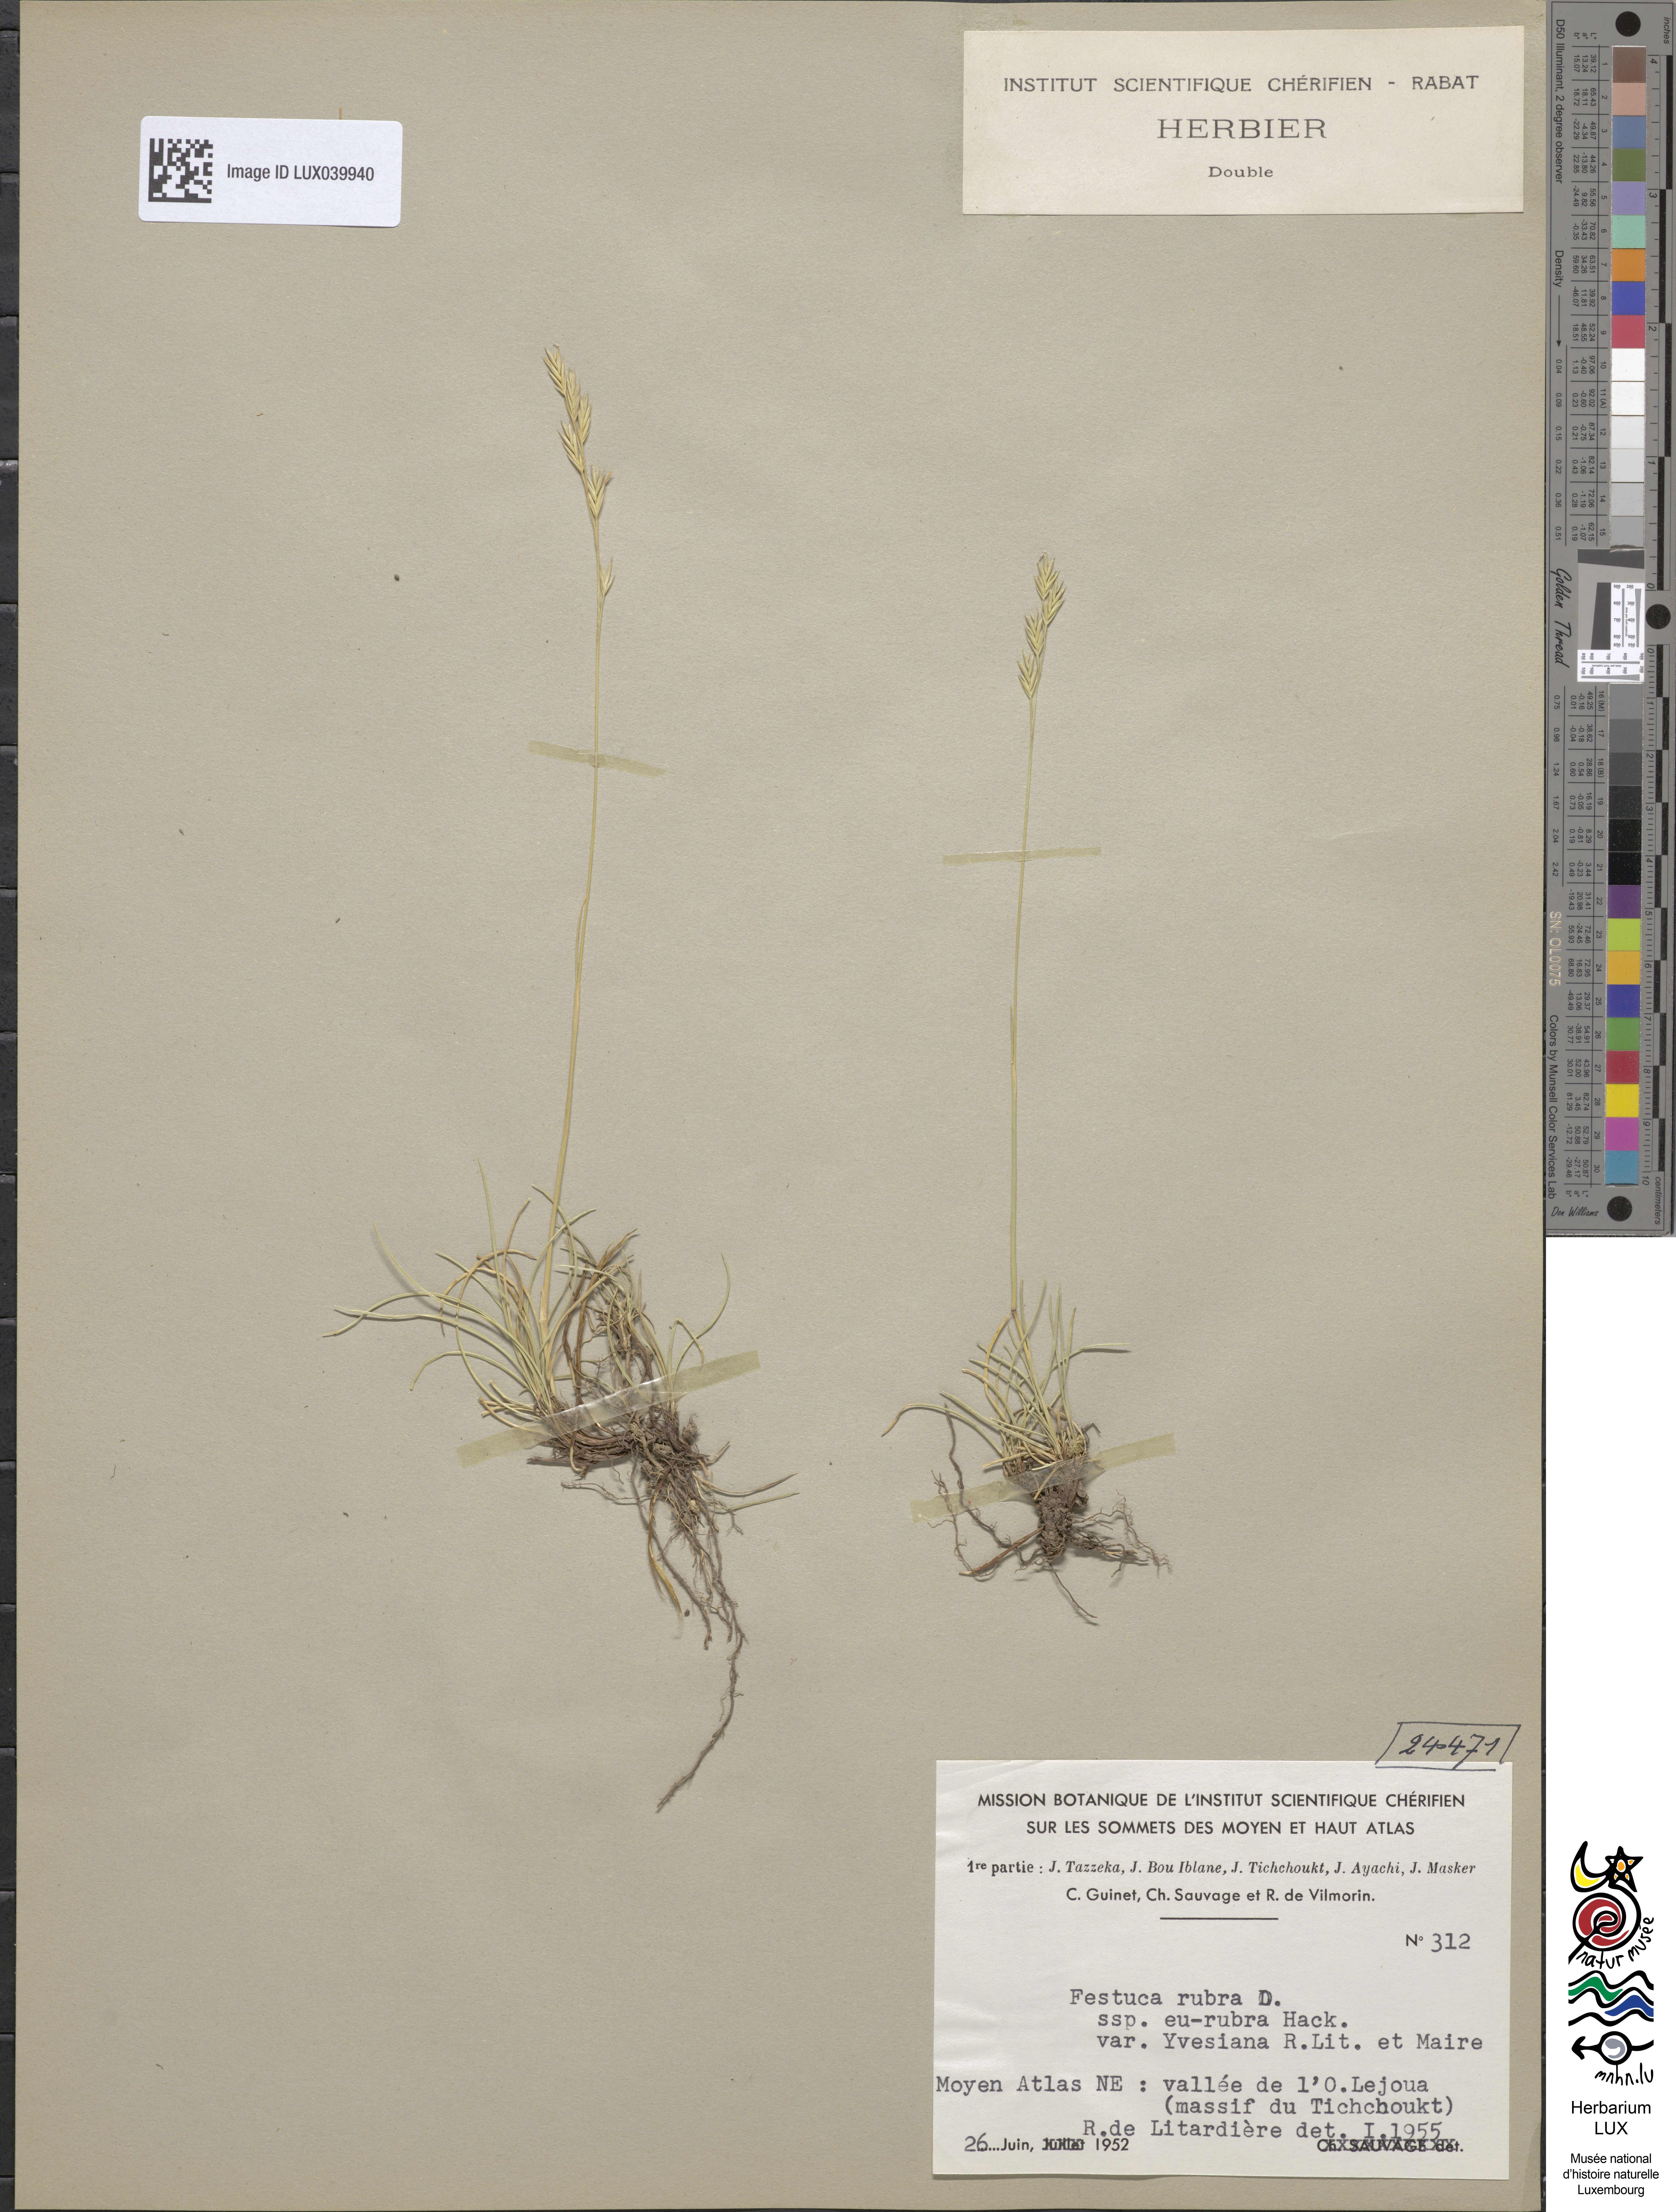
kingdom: Plantae
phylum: Tracheophyta
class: Liliopsida
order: Poales
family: Poaceae
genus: Festuca
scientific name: Festuca pseudotrichophylla
